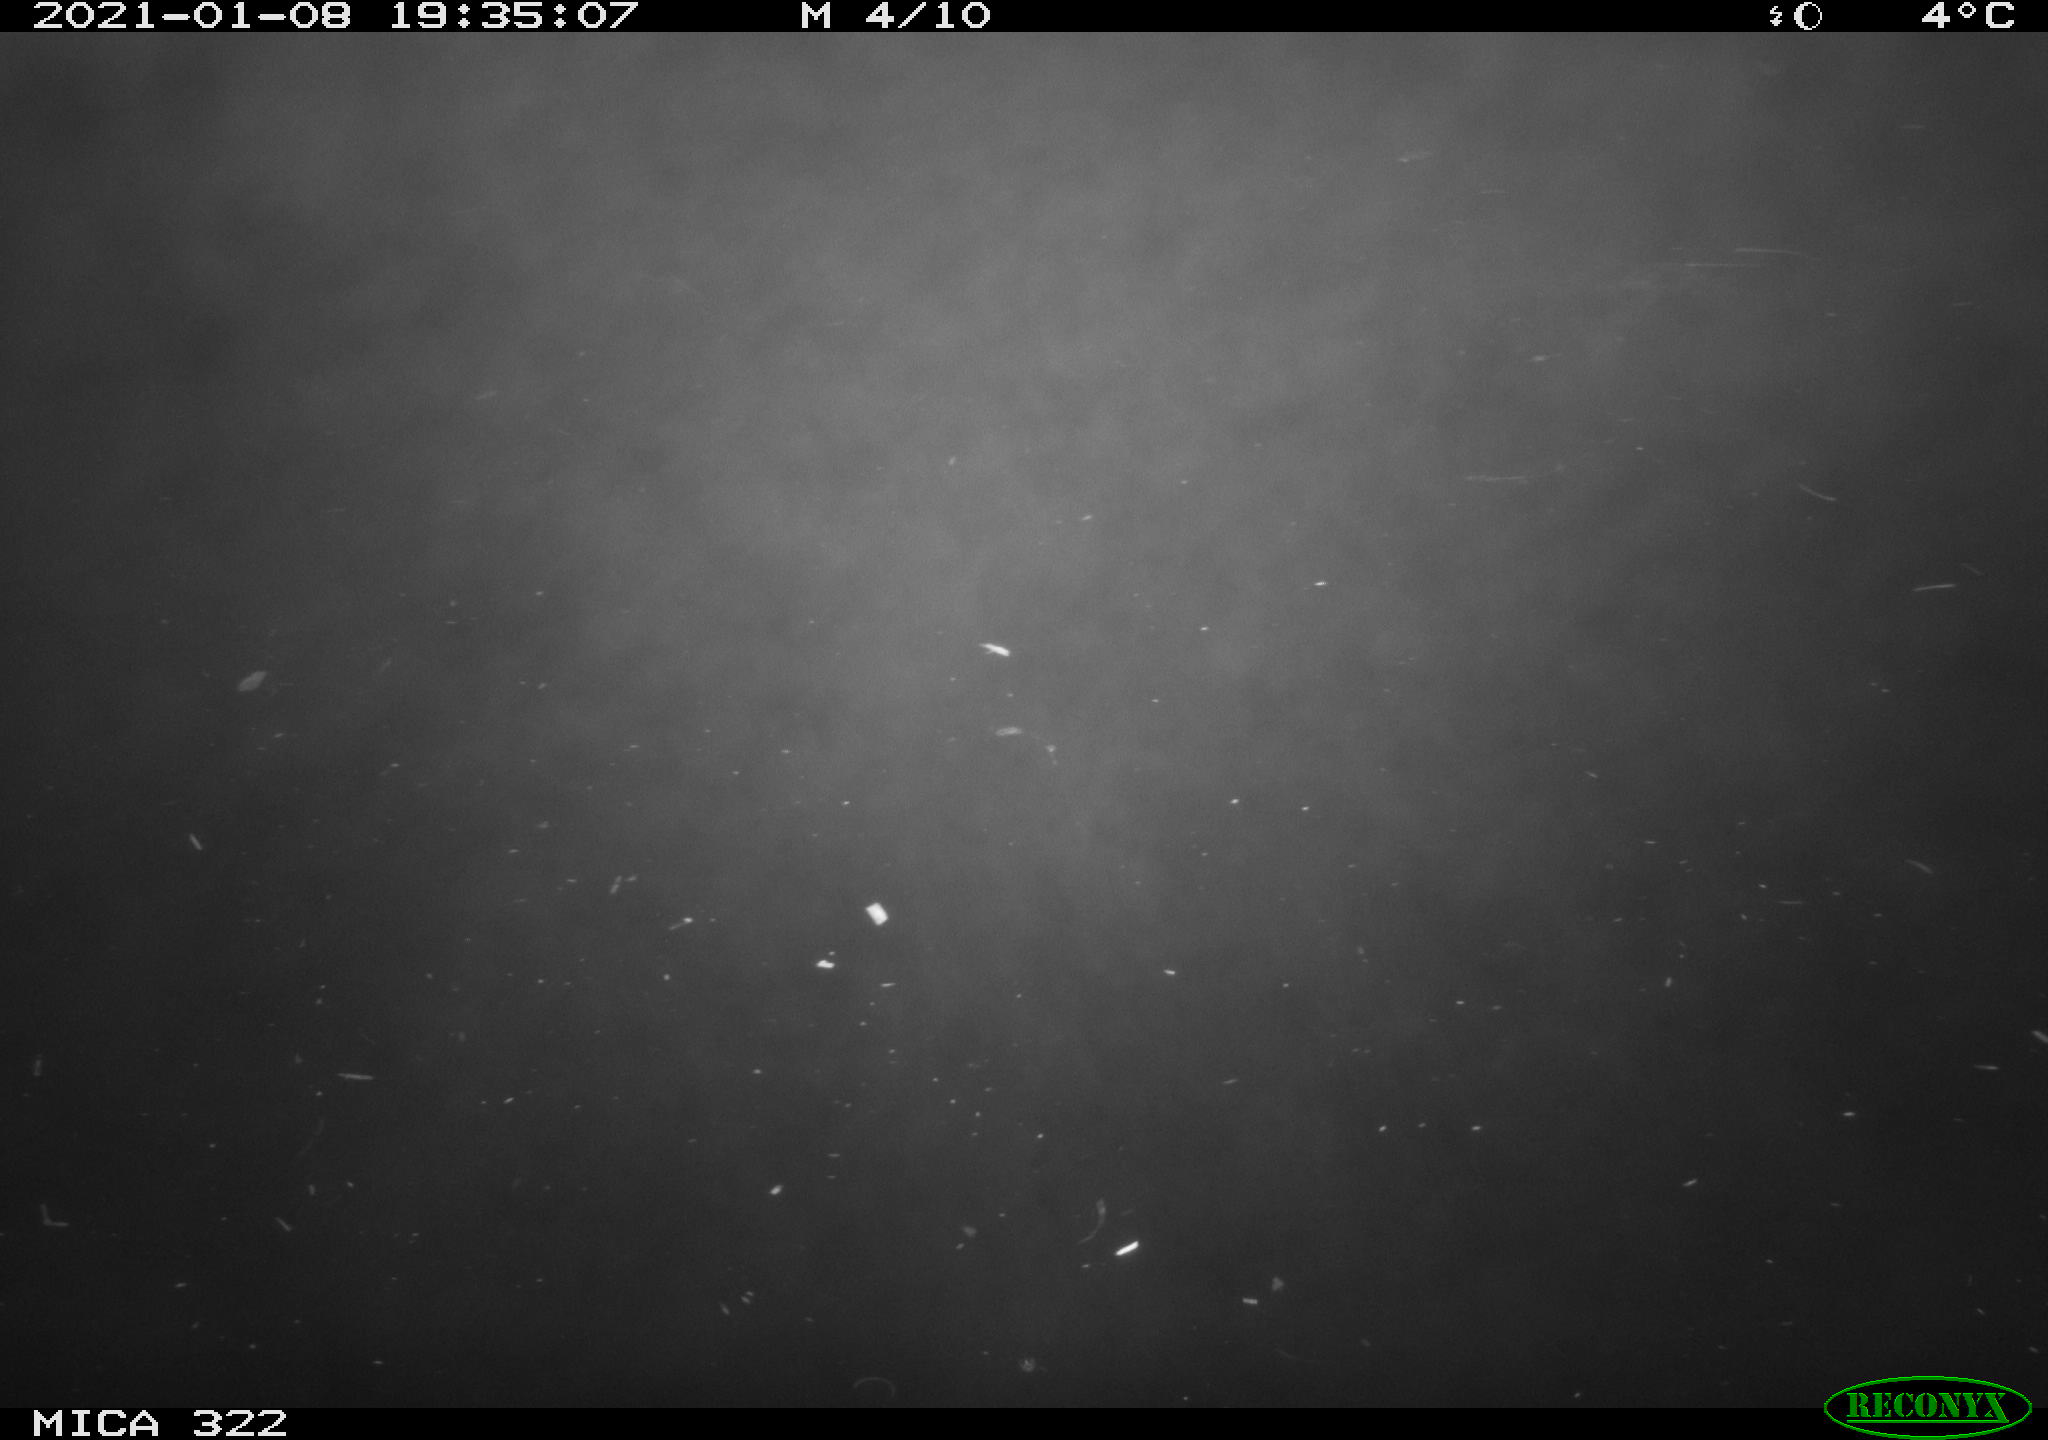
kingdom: Animalia
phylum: Chordata
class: Mammalia
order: Rodentia
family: Muridae
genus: Rattus
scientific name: Rattus norvegicus
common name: Brown rat
